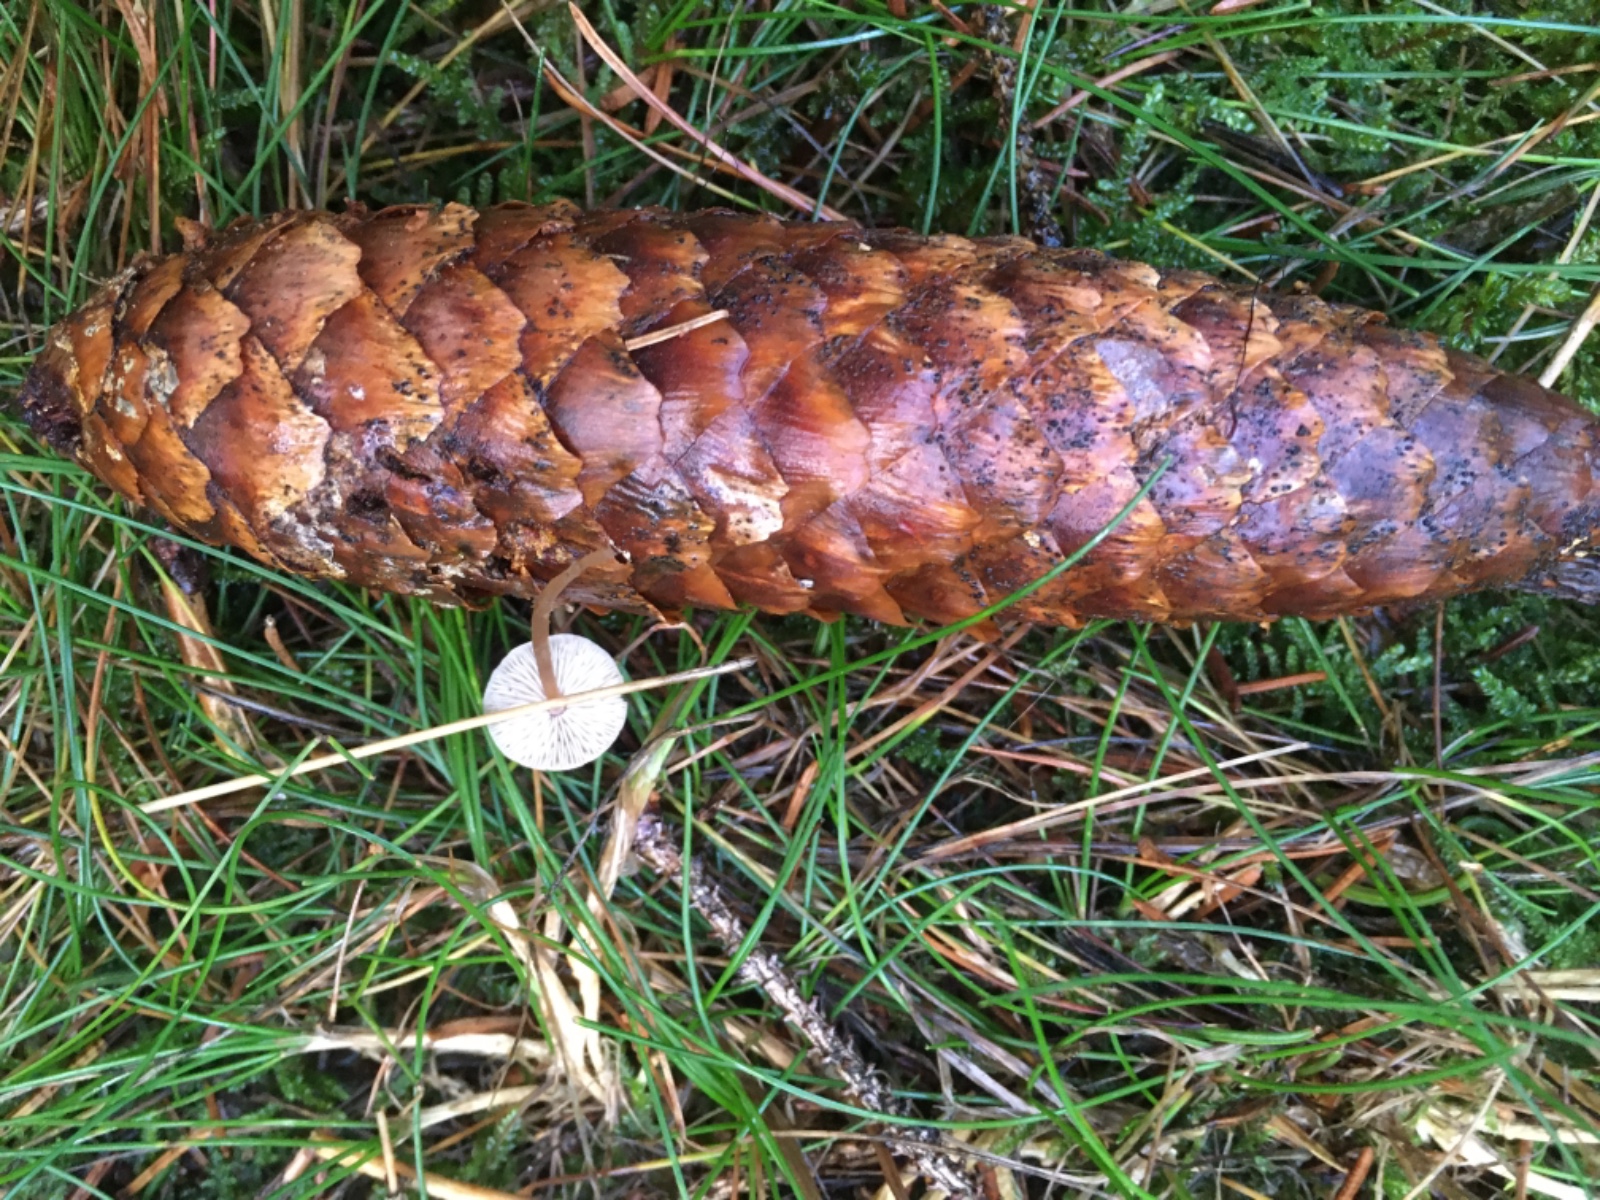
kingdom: Fungi
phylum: Basidiomycota
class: Agaricomycetes
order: Agaricales
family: Physalacriaceae
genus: Strobilurus
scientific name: Strobilurus esculentus
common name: gran-koglehat
